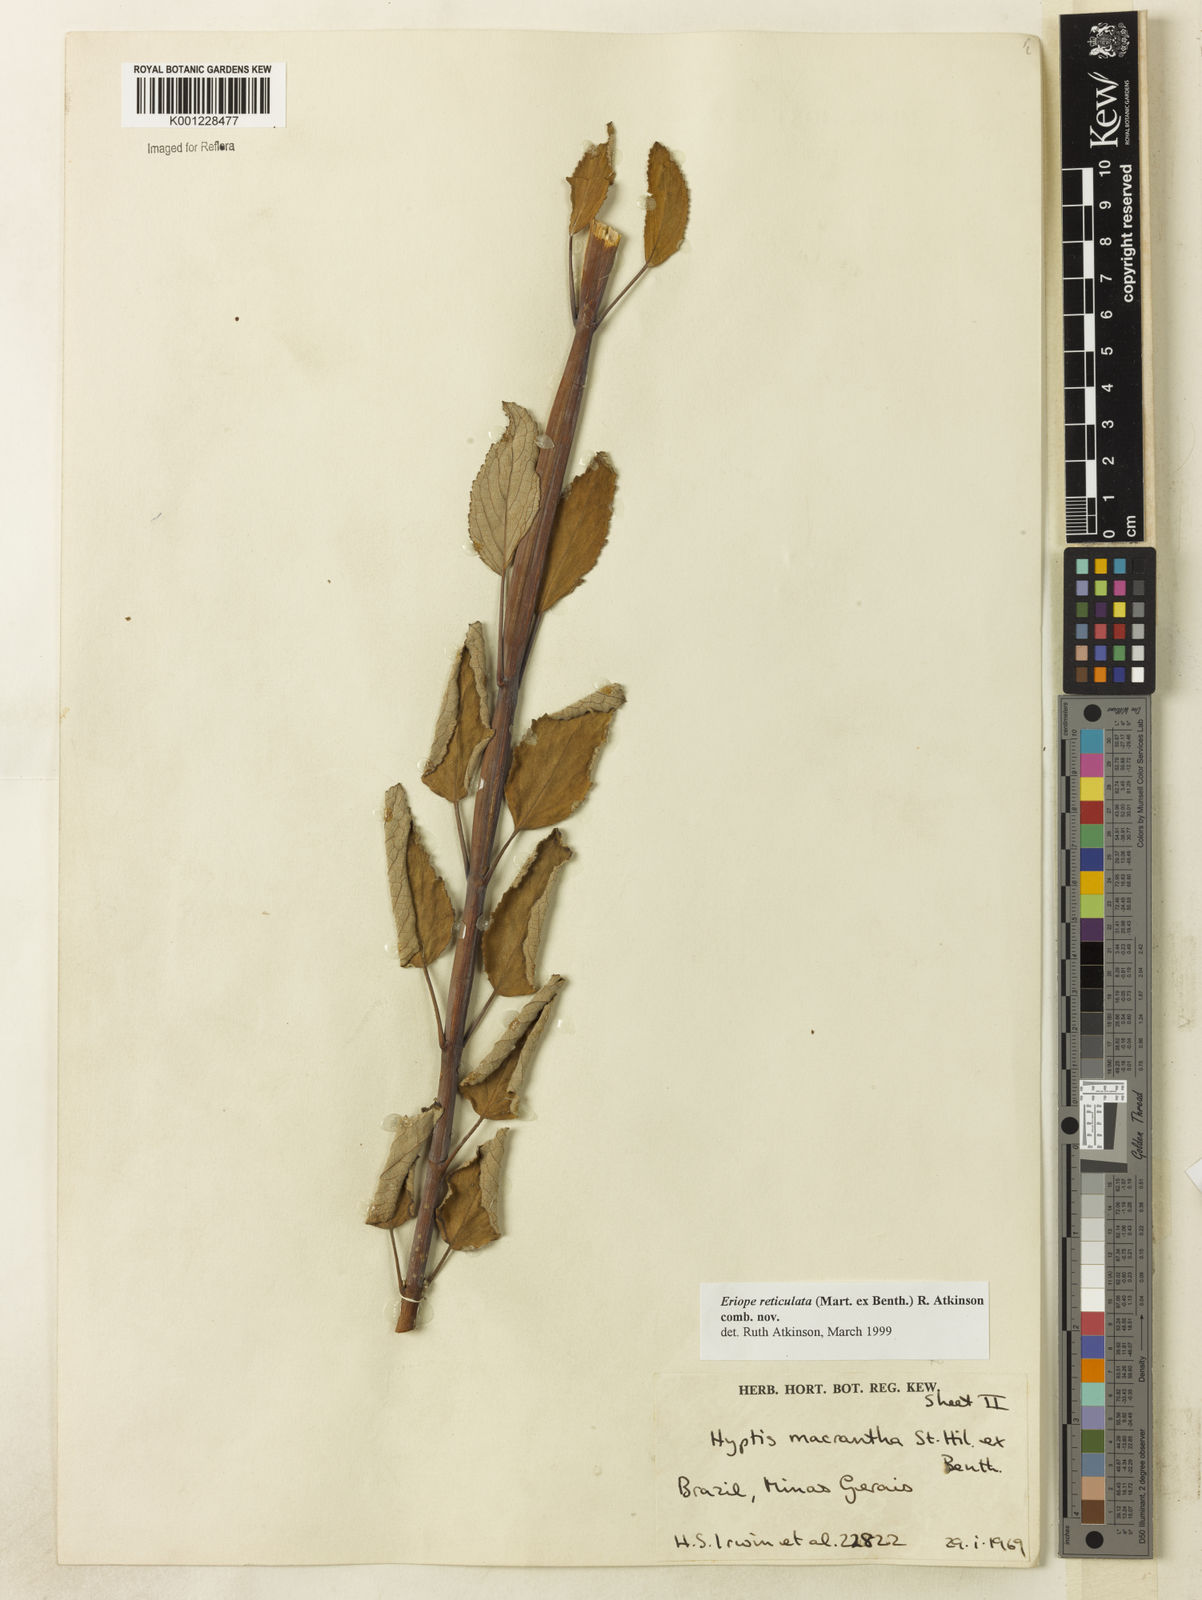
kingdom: Plantae
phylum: Tracheophyta
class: Magnoliopsida
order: Lamiales
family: Lamiaceae
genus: Hypenia
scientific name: Hypenia reticulata
